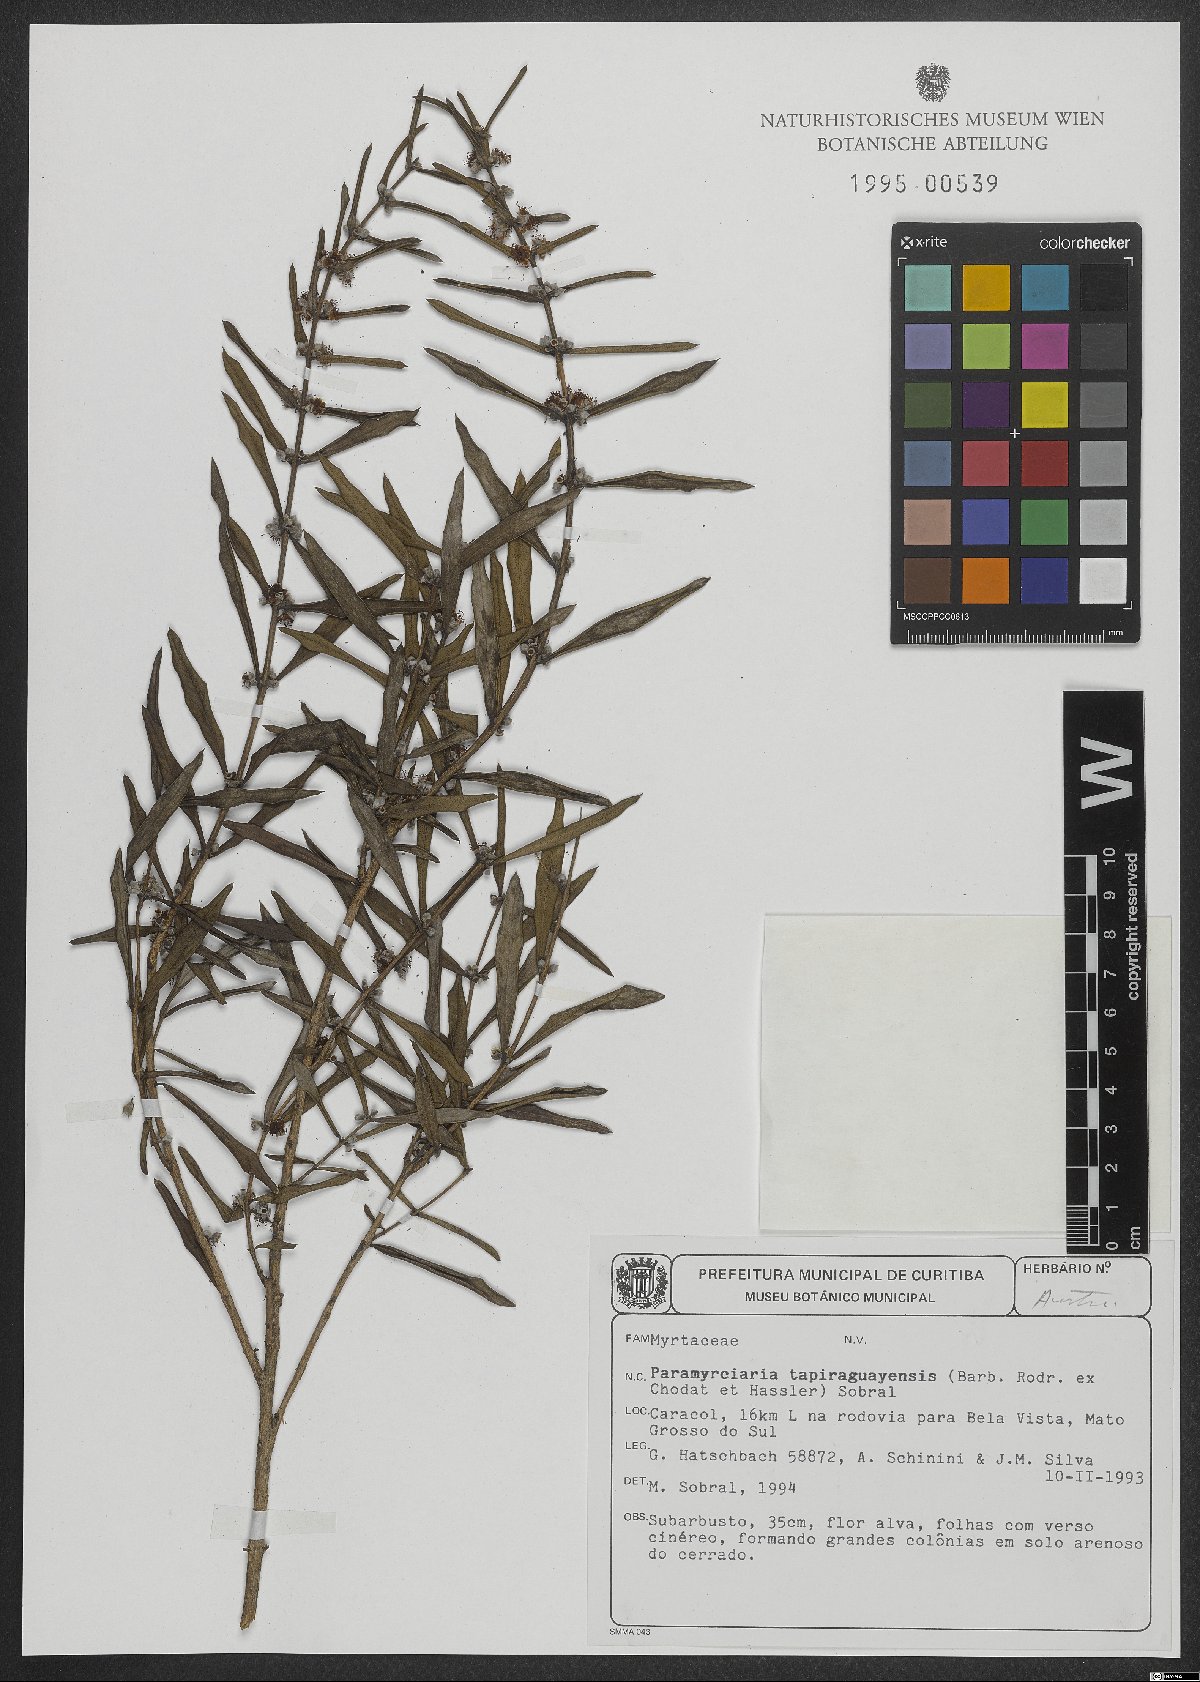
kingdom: Plantae
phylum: Tracheophyta
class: Magnoliopsida
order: Myrtales
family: Myrtaceae
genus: Myrciaria
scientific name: Myrciaria rojasii
